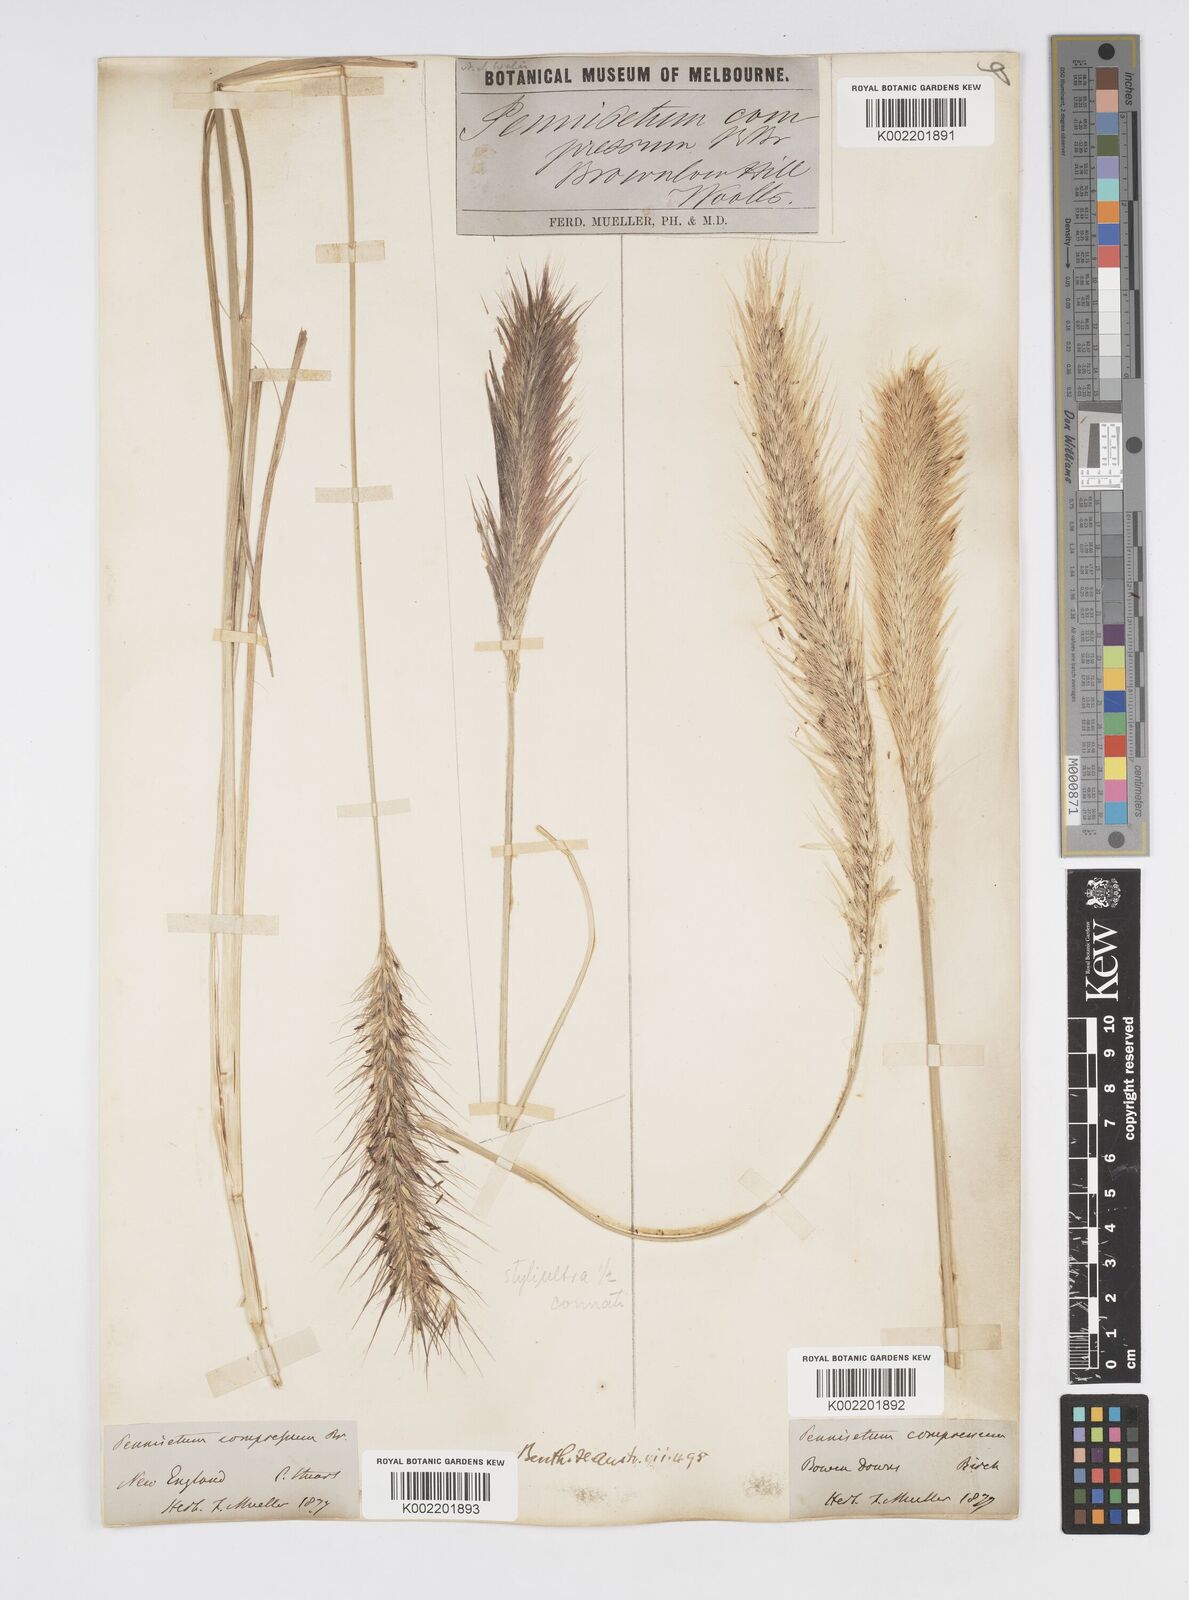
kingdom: Plantae
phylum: Tracheophyta
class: Liliopsida
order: Poales
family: Poaceae
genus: Cenchrus
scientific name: Cenchrus alopecuroides
